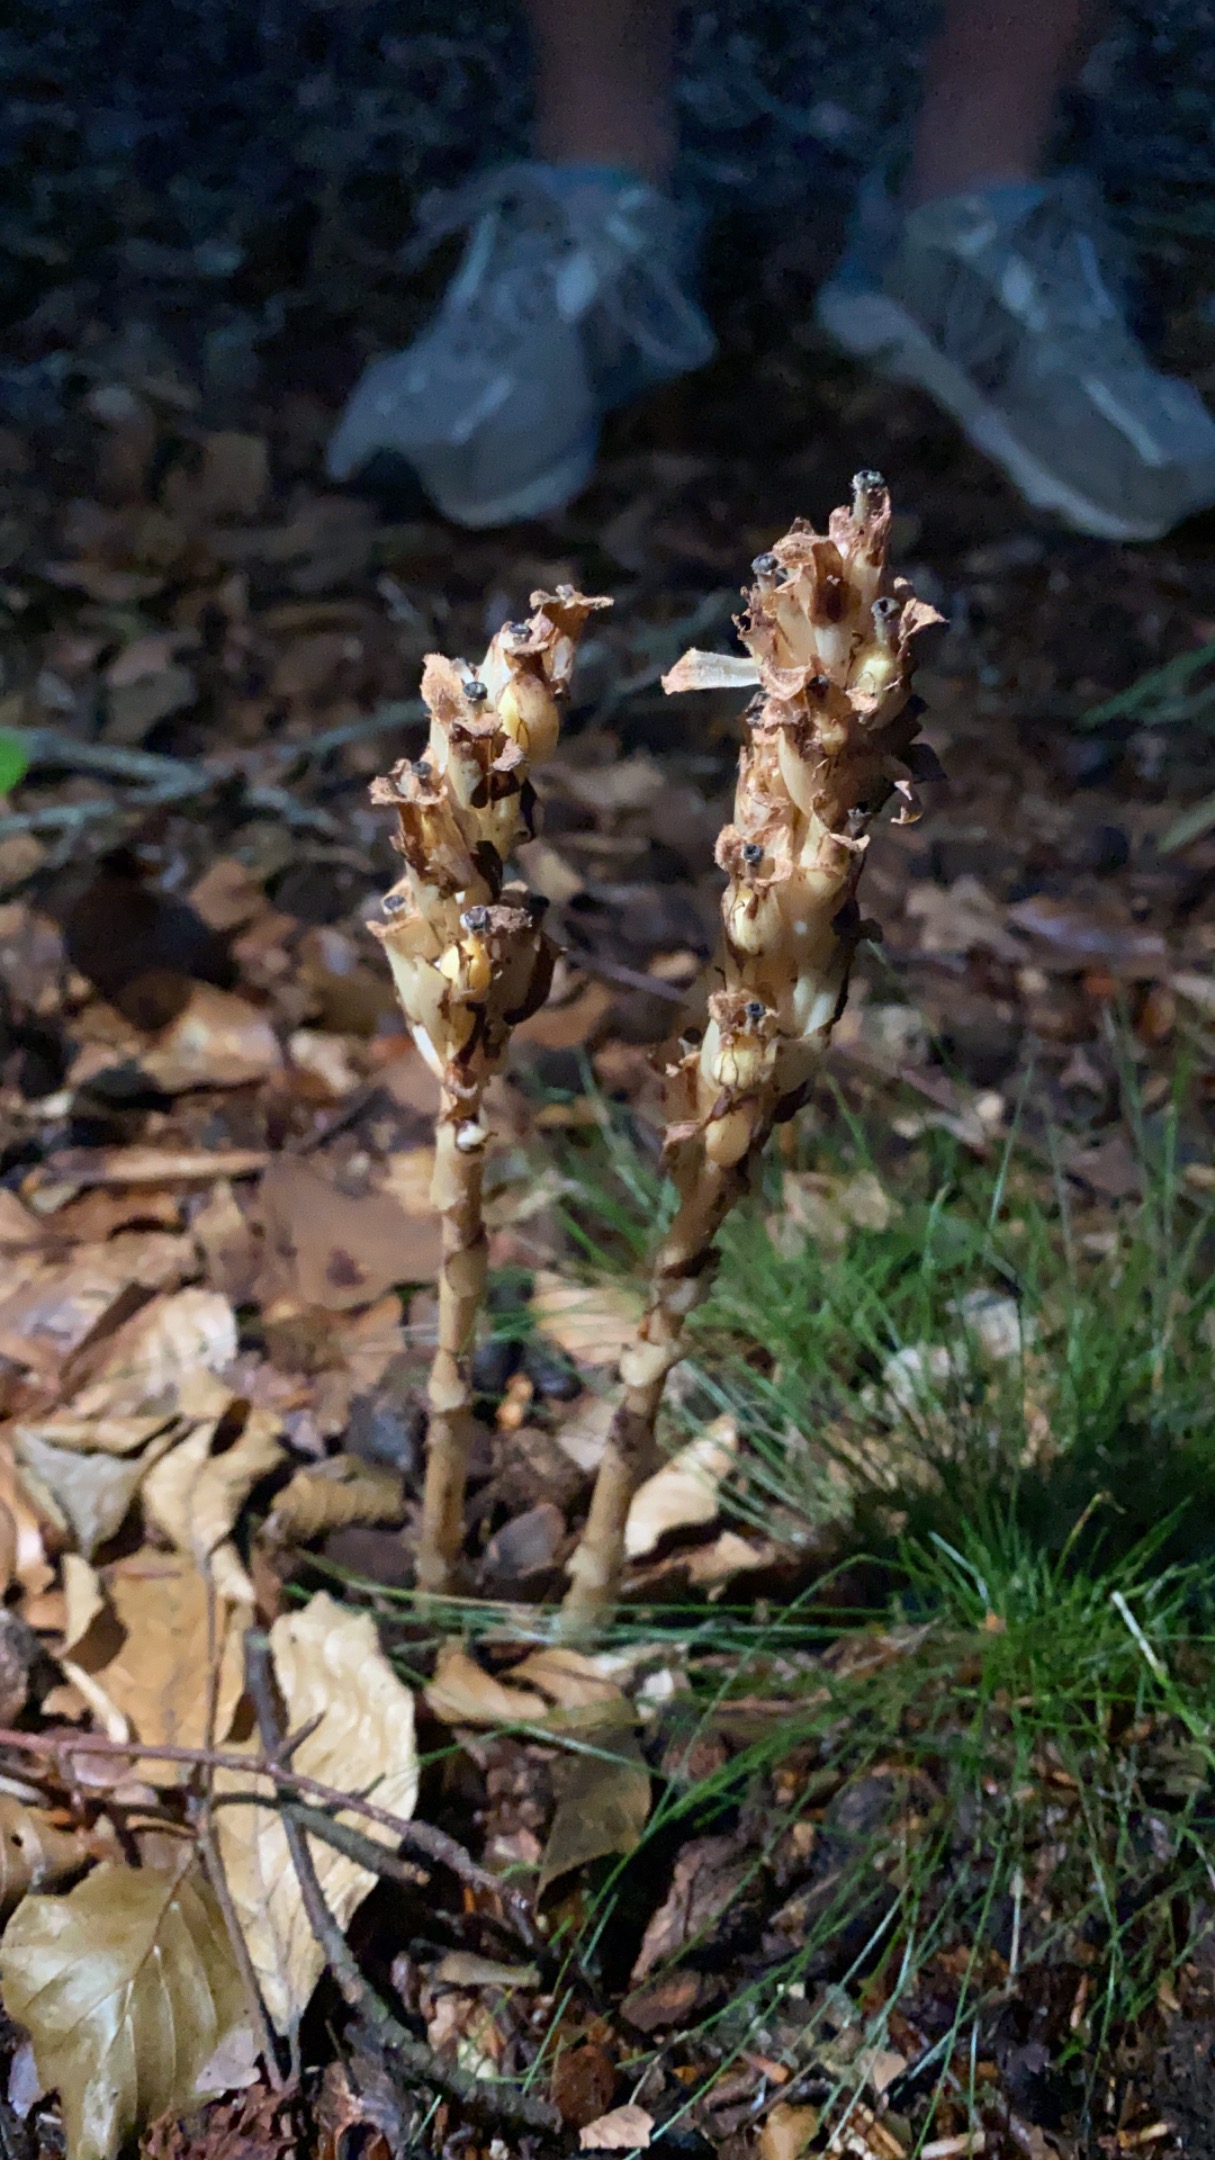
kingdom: Plantae
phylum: Tracheophyta
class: Magnoliopsida
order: Ericales
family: Ericaceae
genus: Hypopitys
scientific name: Hypopitys monotropa
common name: Snylterod
